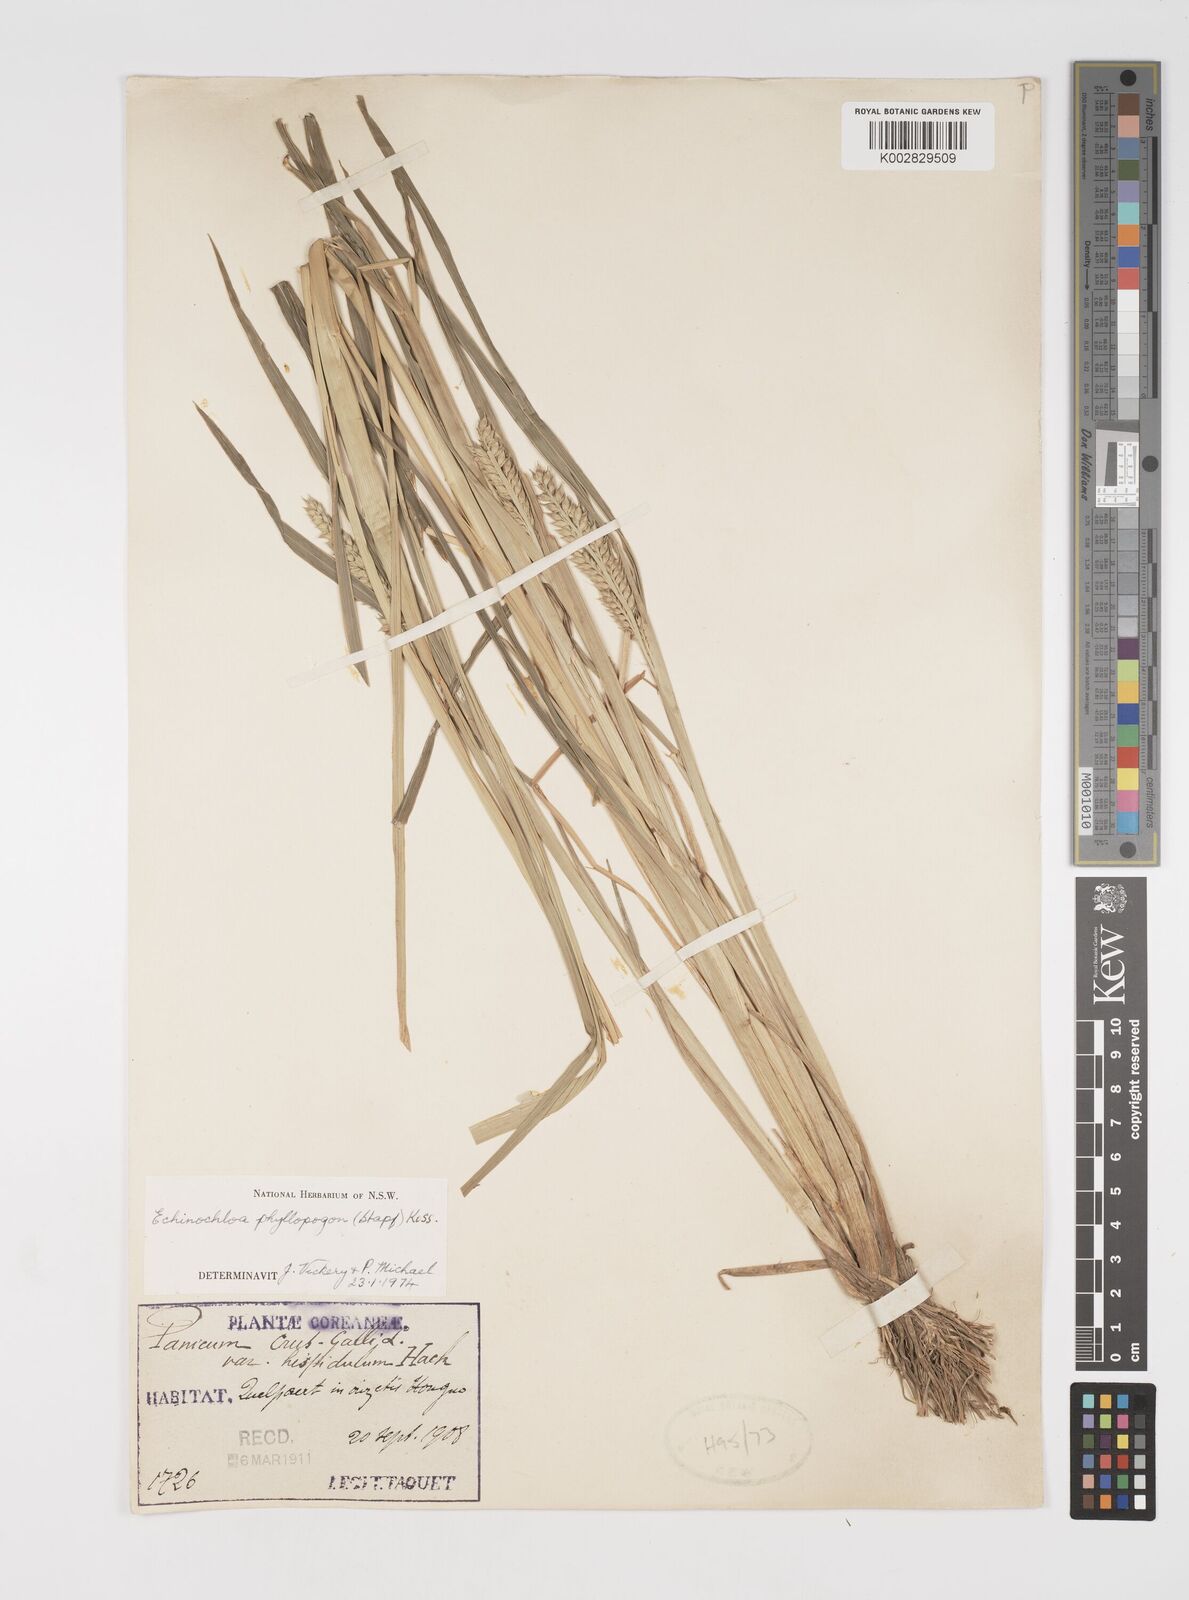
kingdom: Plantae
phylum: Tracheophyta
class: Liliopsida
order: Poales
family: Poaceae
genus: Echinochloa
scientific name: Echinochloa oryzoides
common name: Early water grass
